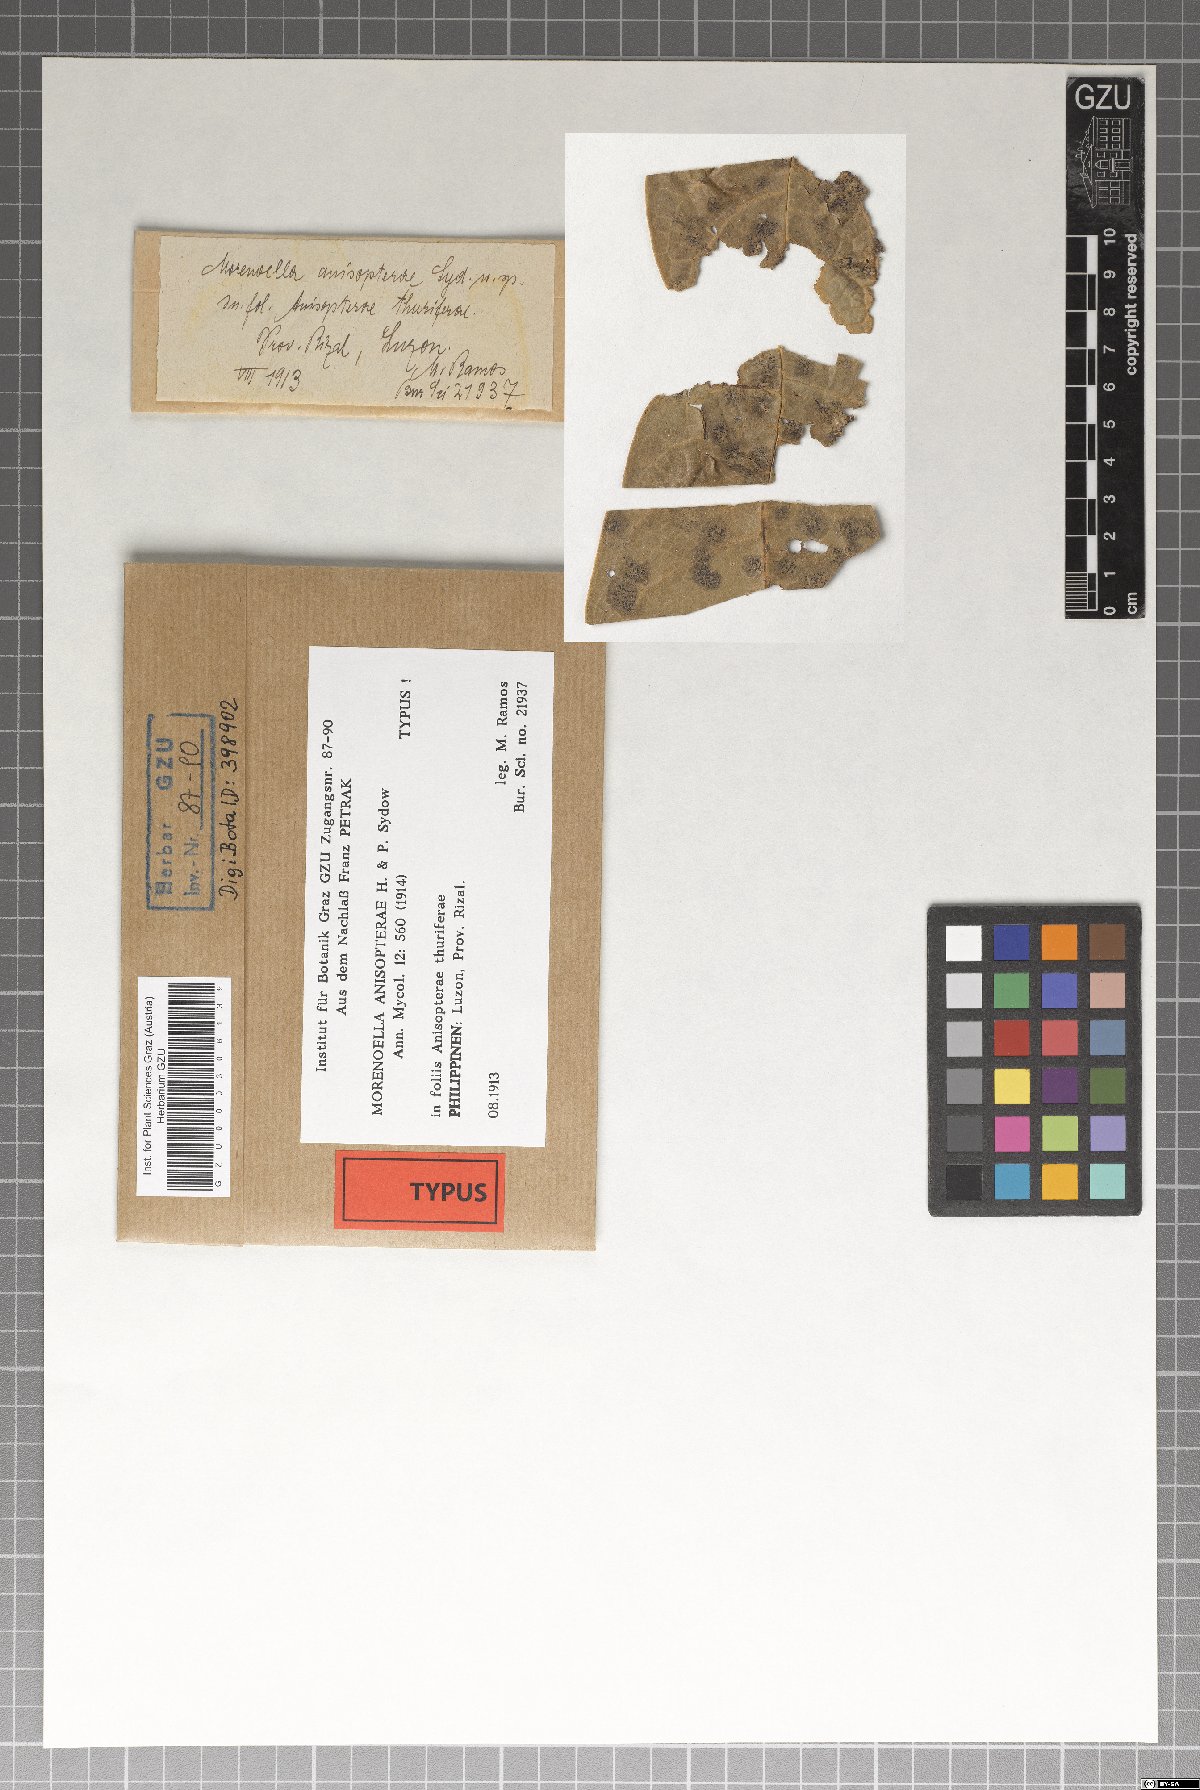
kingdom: Fungi
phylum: Ascomycota
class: Dothideomycetes
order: Asterinales
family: Asterinaceae
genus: Lembosia
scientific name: Lembosia anisopterae
